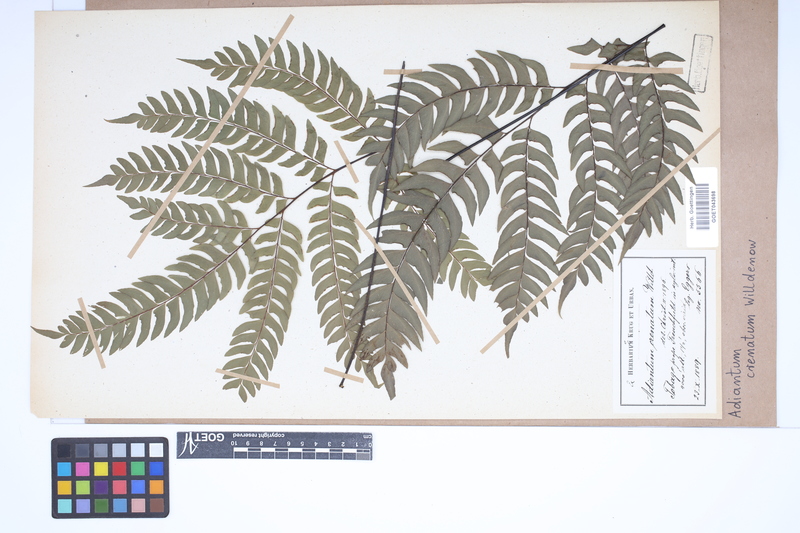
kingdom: Plantae
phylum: Tracheophyta
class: Polypodiopsida
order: Polypodiales
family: Pteridaceae
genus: Adiantum
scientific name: Adiantum pyramidale
